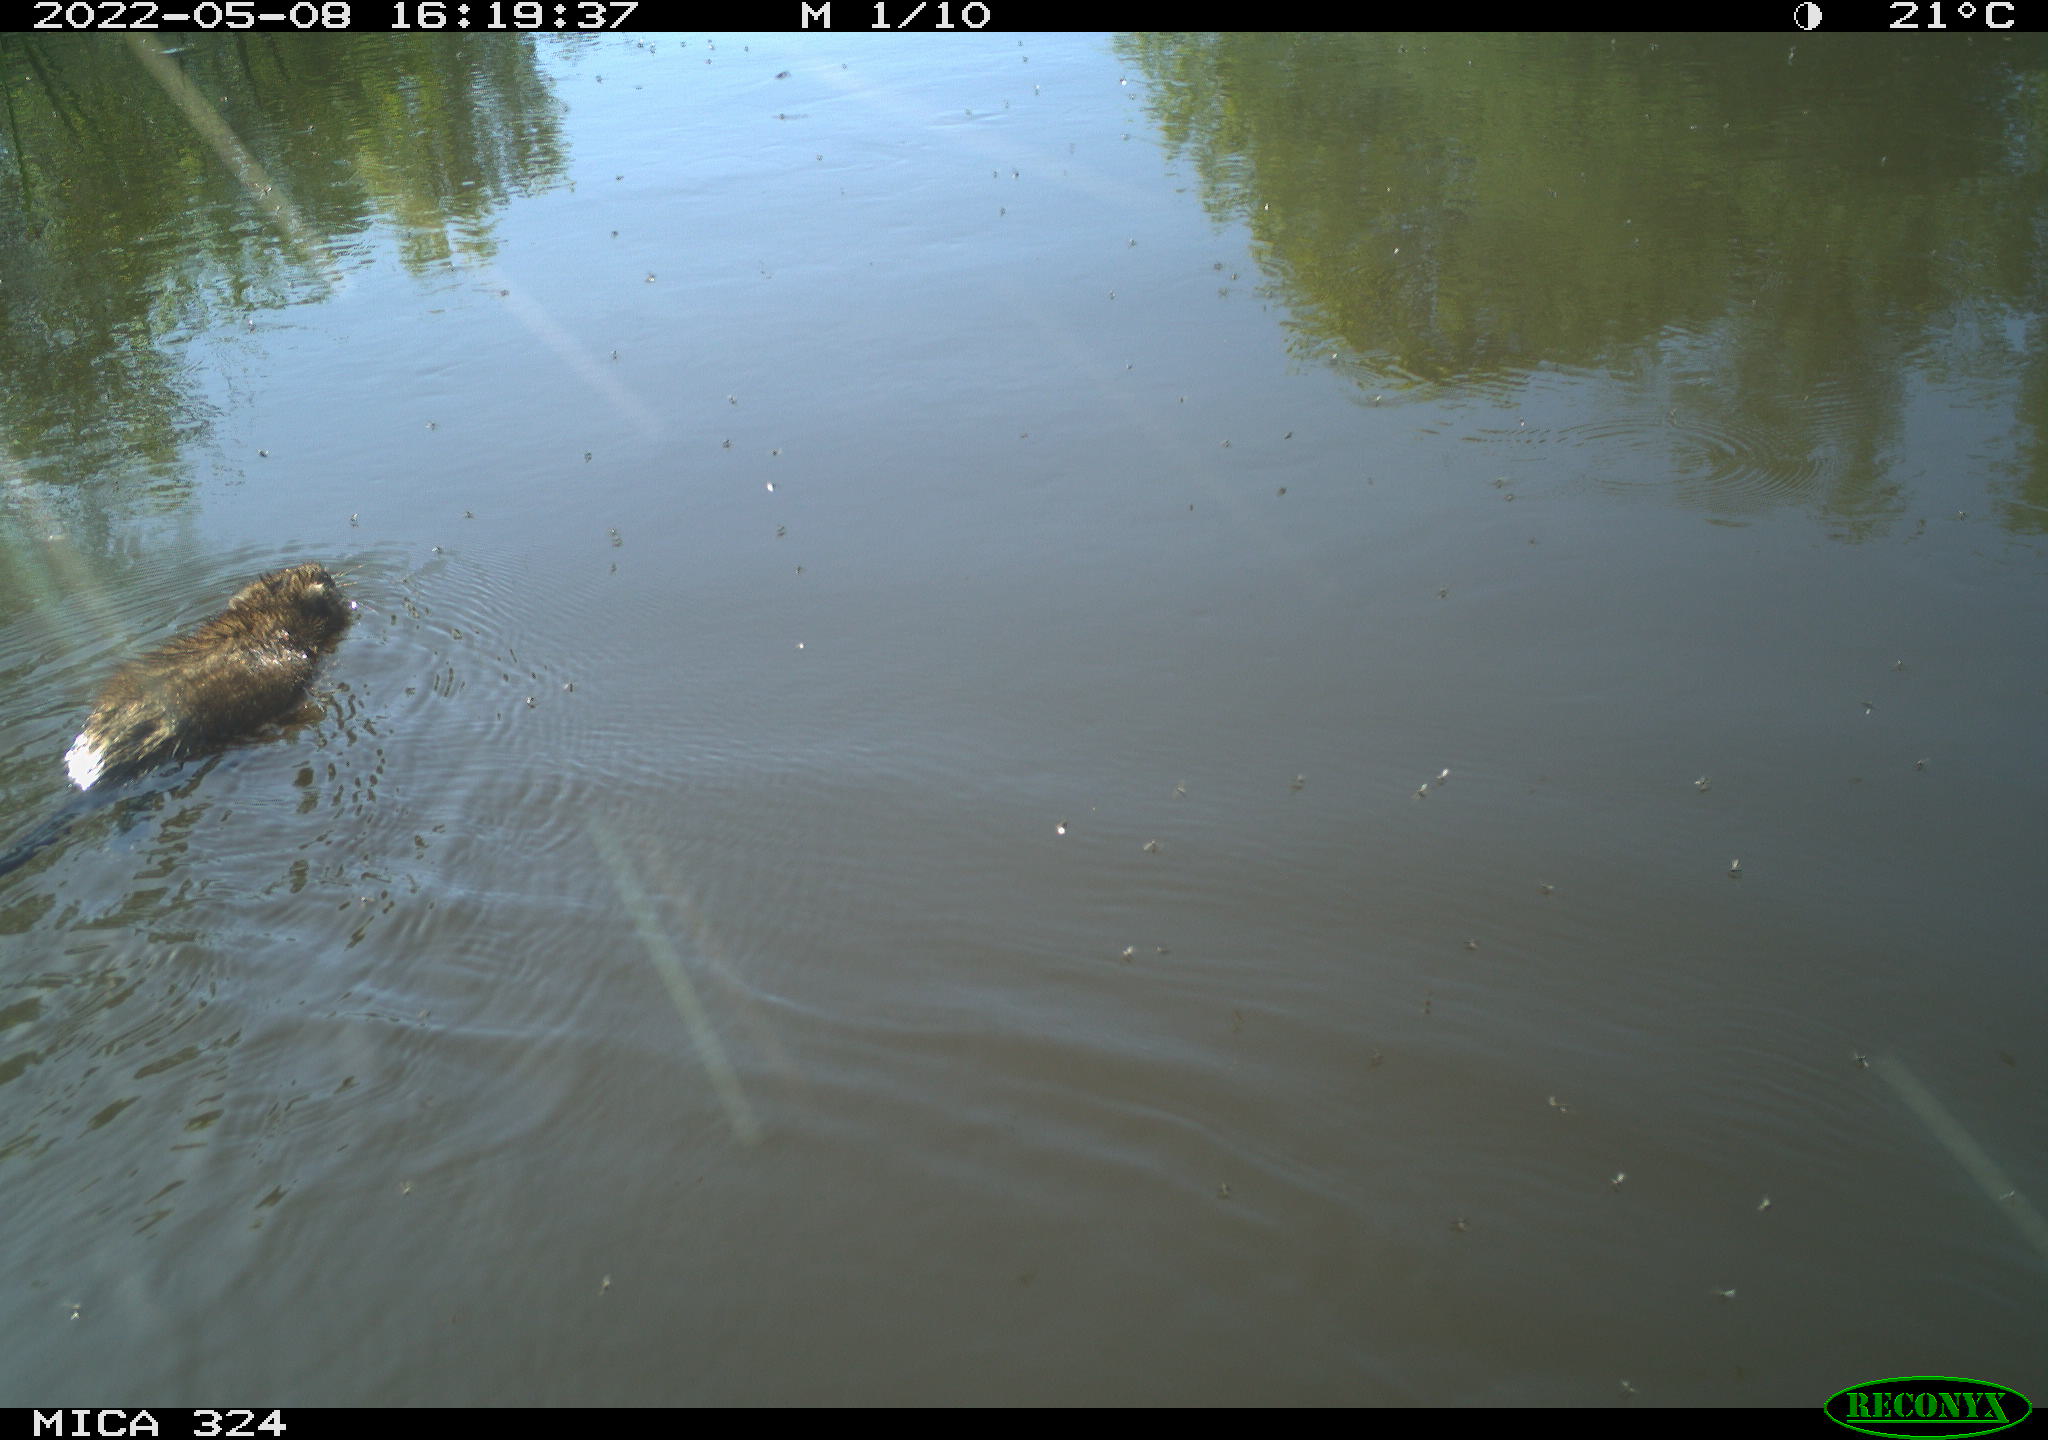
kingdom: Animalia
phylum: Chordata
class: Mammalia
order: Rodentia
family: Cricetidae
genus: Ondatra
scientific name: Ondatra zibethicus
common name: Muskrat
